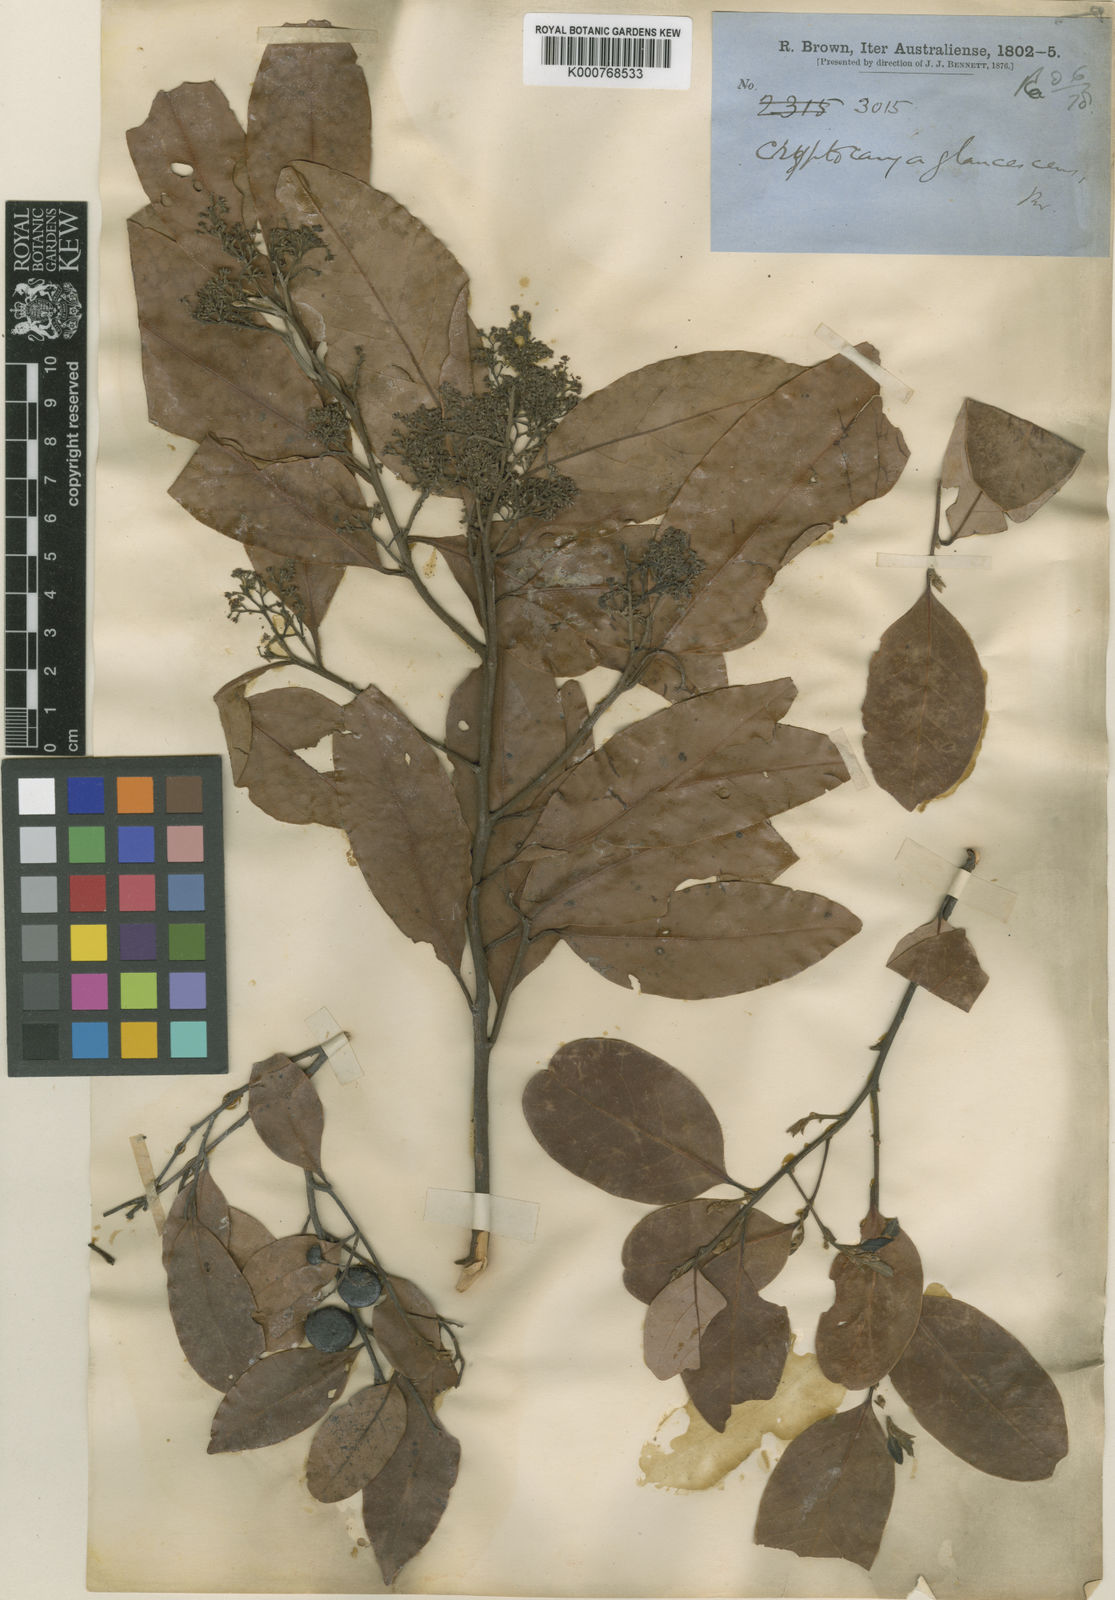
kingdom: Plantae
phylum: Tracheophyta
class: Magnoliopsida
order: Laurales
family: Lauraceae
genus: Cryptocarya
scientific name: Cryptocarya glaucescens
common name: Bolly-laurel
